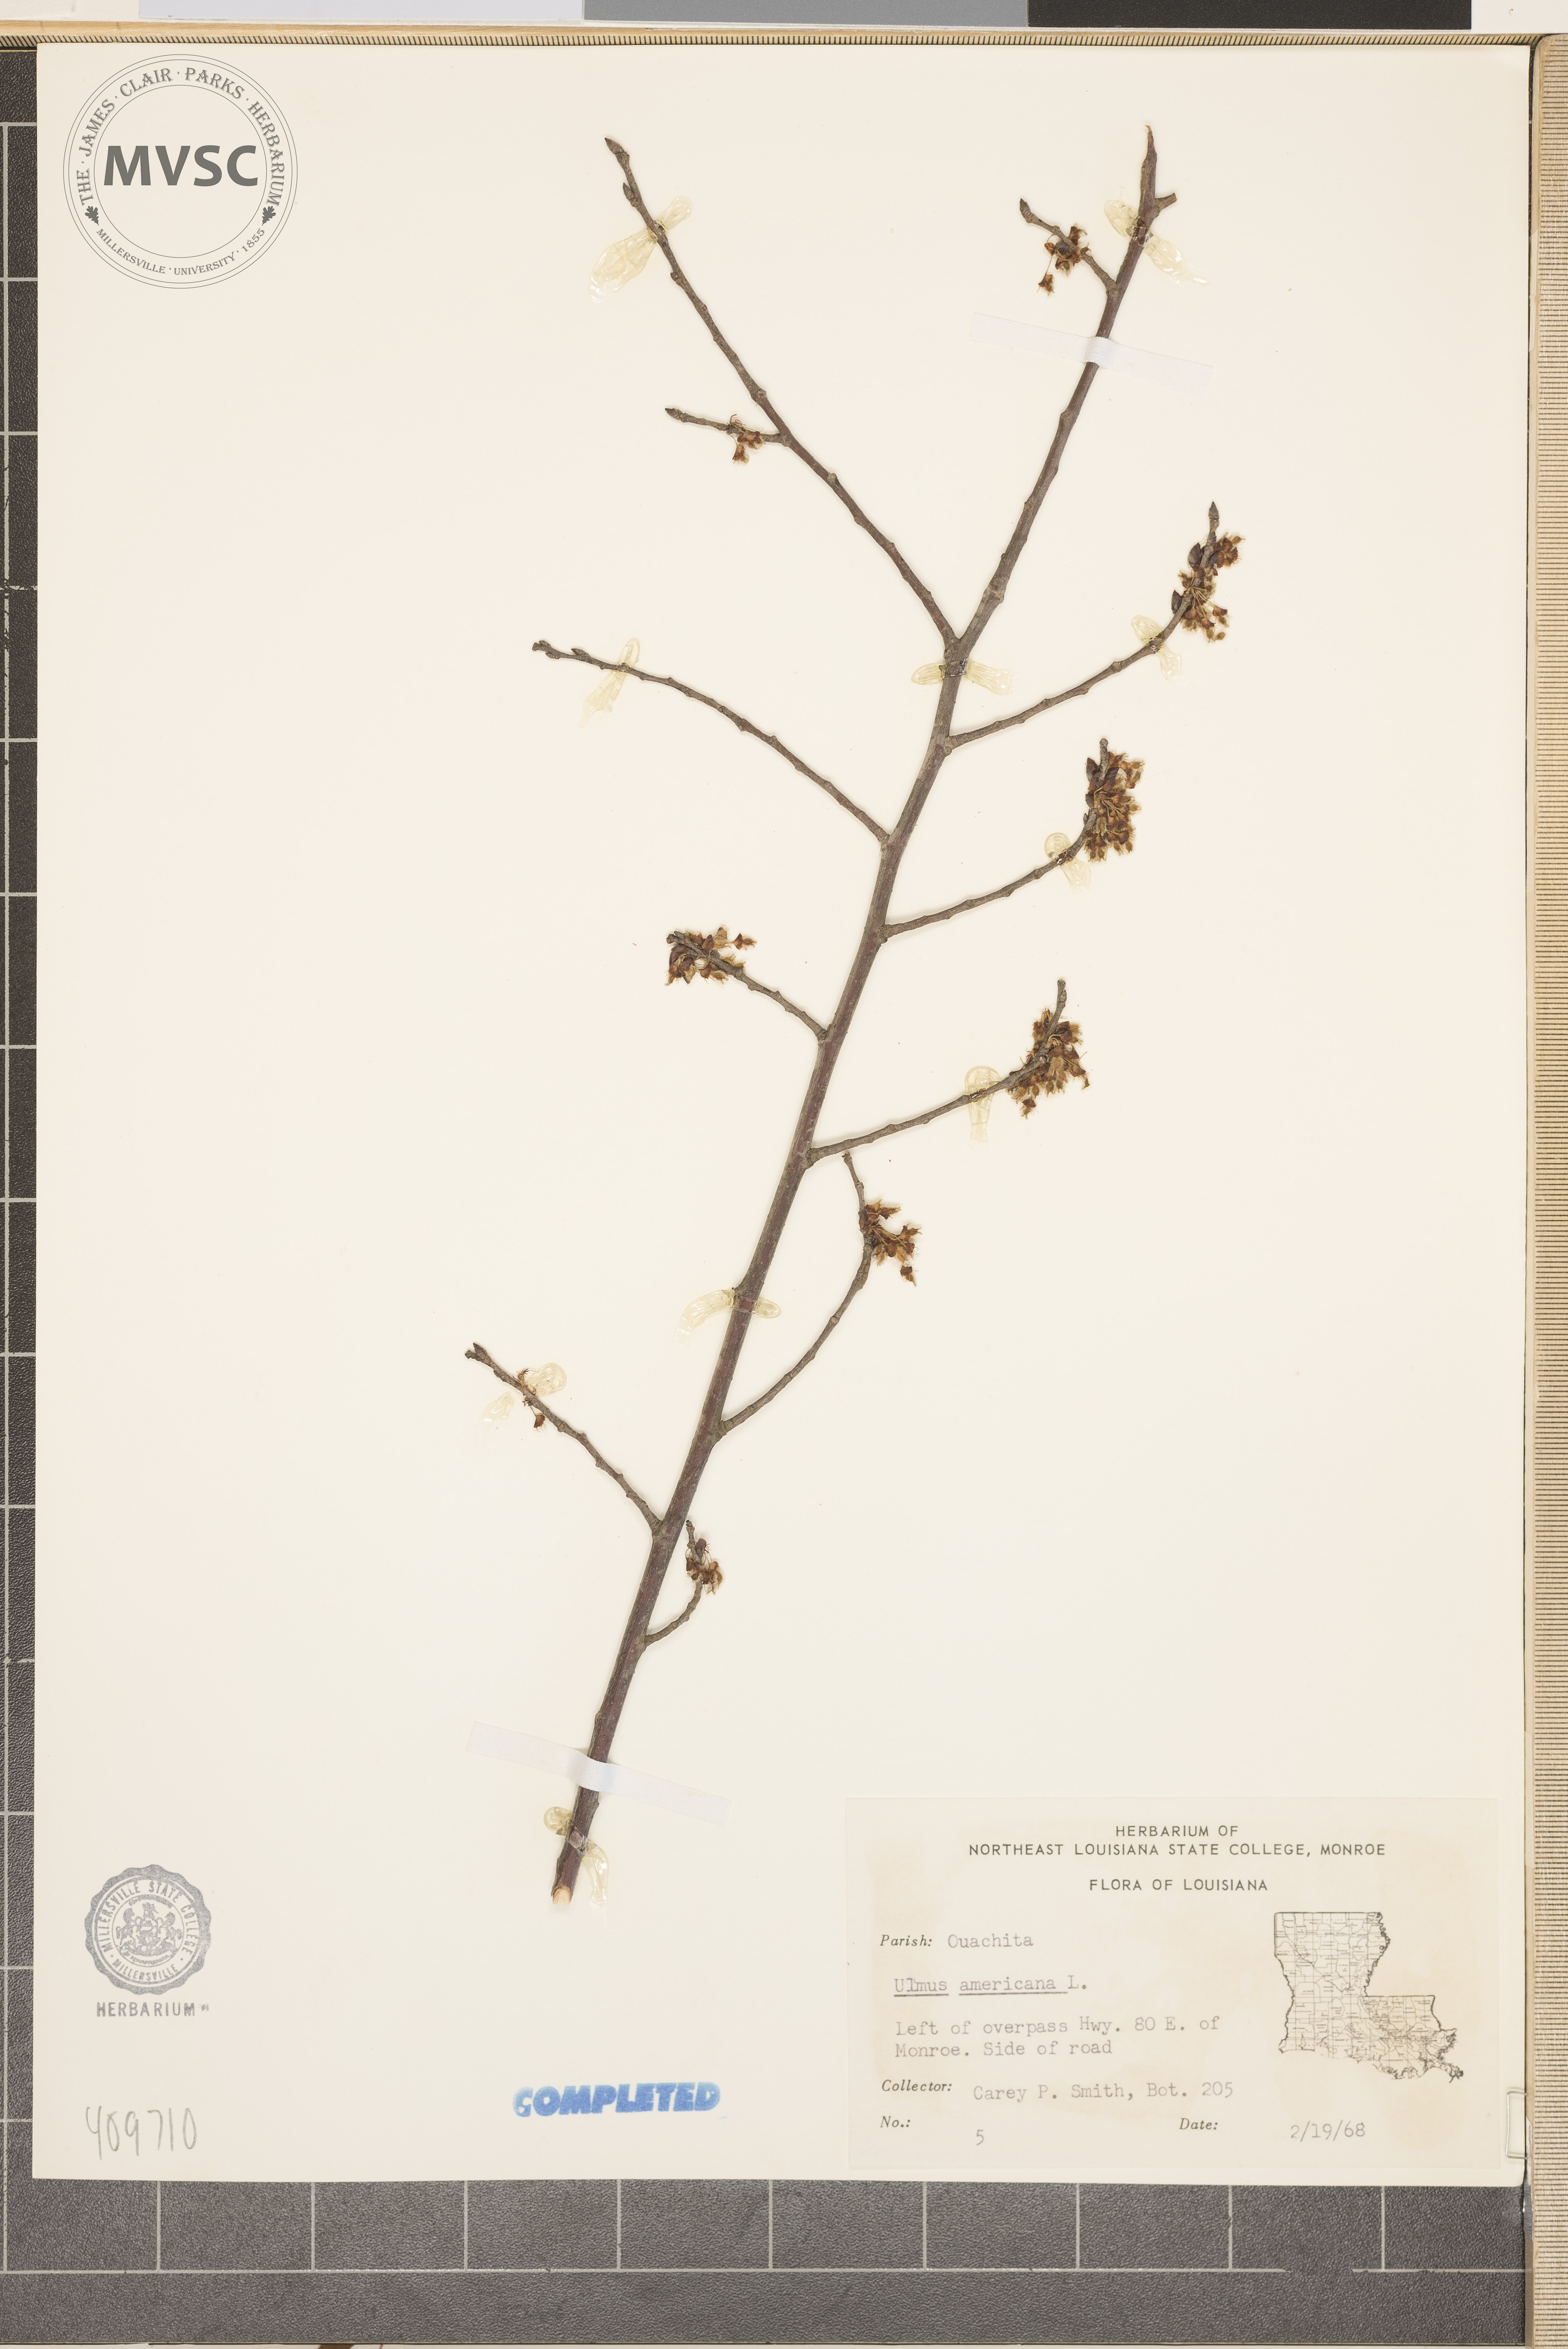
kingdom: Plantae
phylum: Tracheophyta
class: Magnoliopsida
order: Rosales
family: Ulmaceae
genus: Ulmus
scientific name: Ulmus americana
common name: American elm
